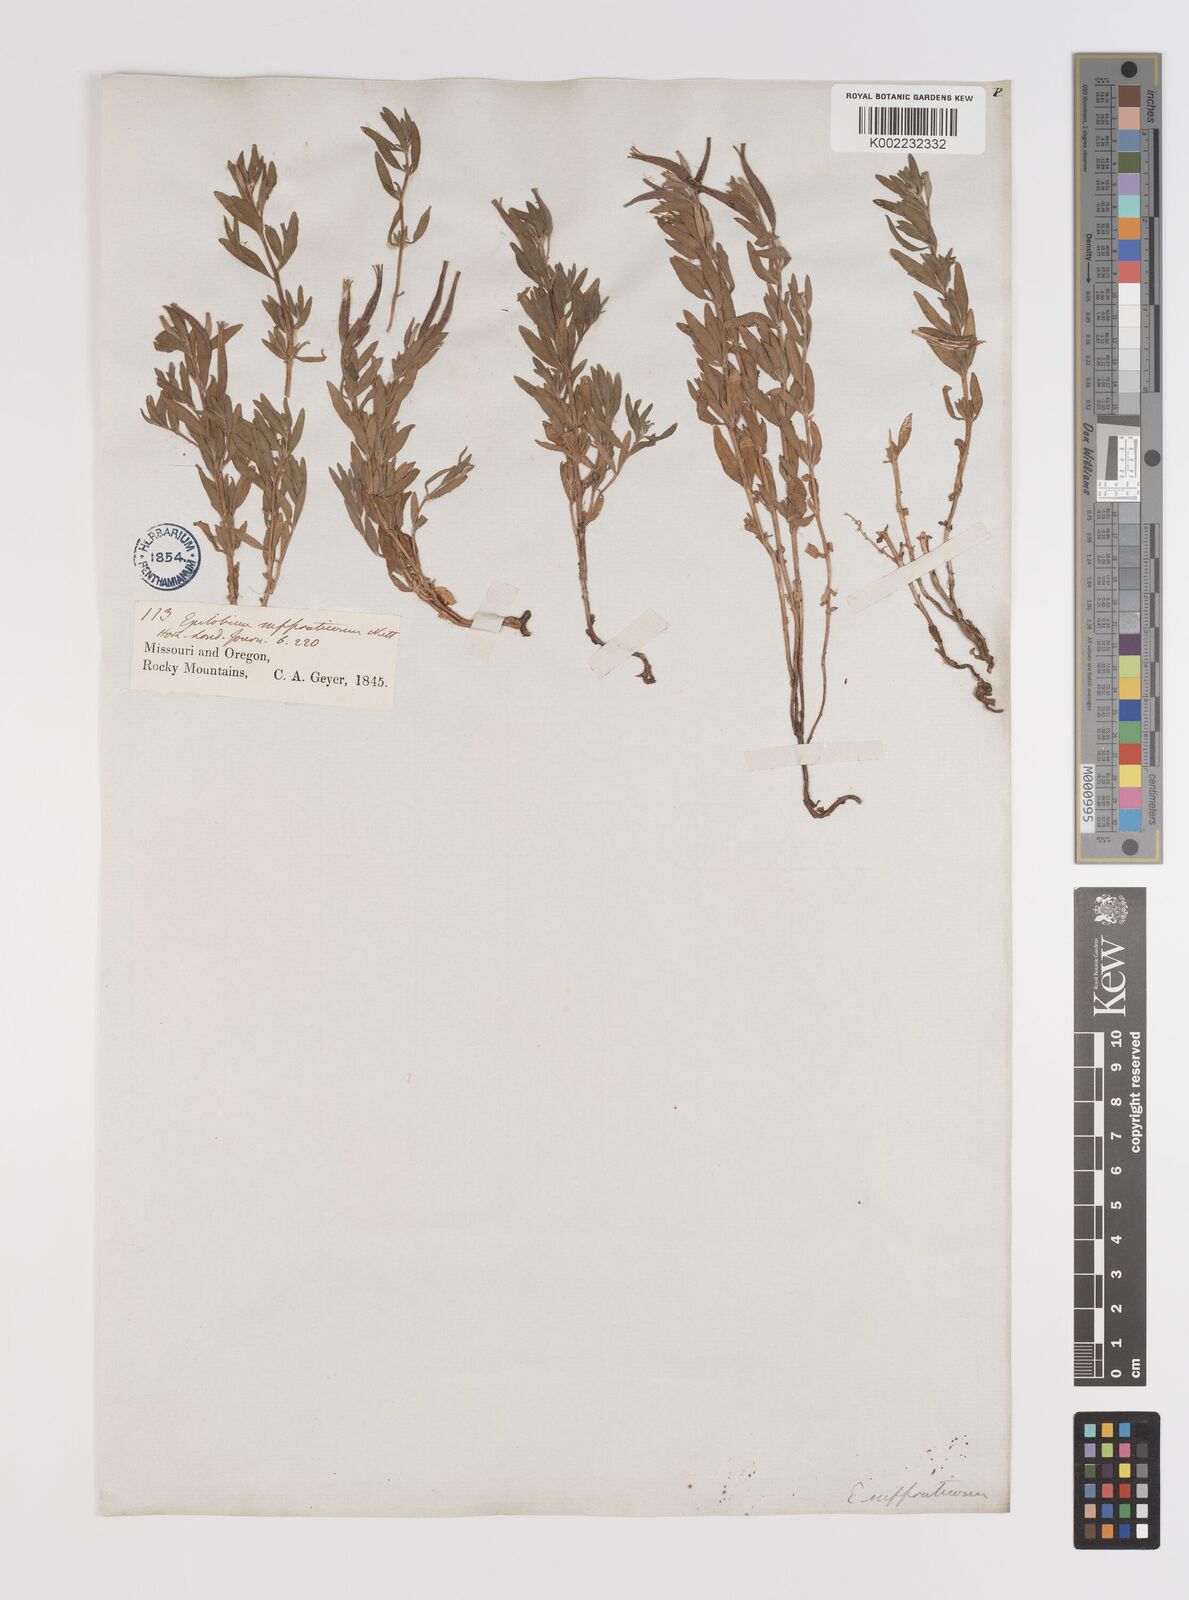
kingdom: Plantae
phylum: Tracheophyta
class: Magnoliopsida
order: Myrtales
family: Onagraceae
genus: Epilobium
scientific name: Epilobium suffruticosum
